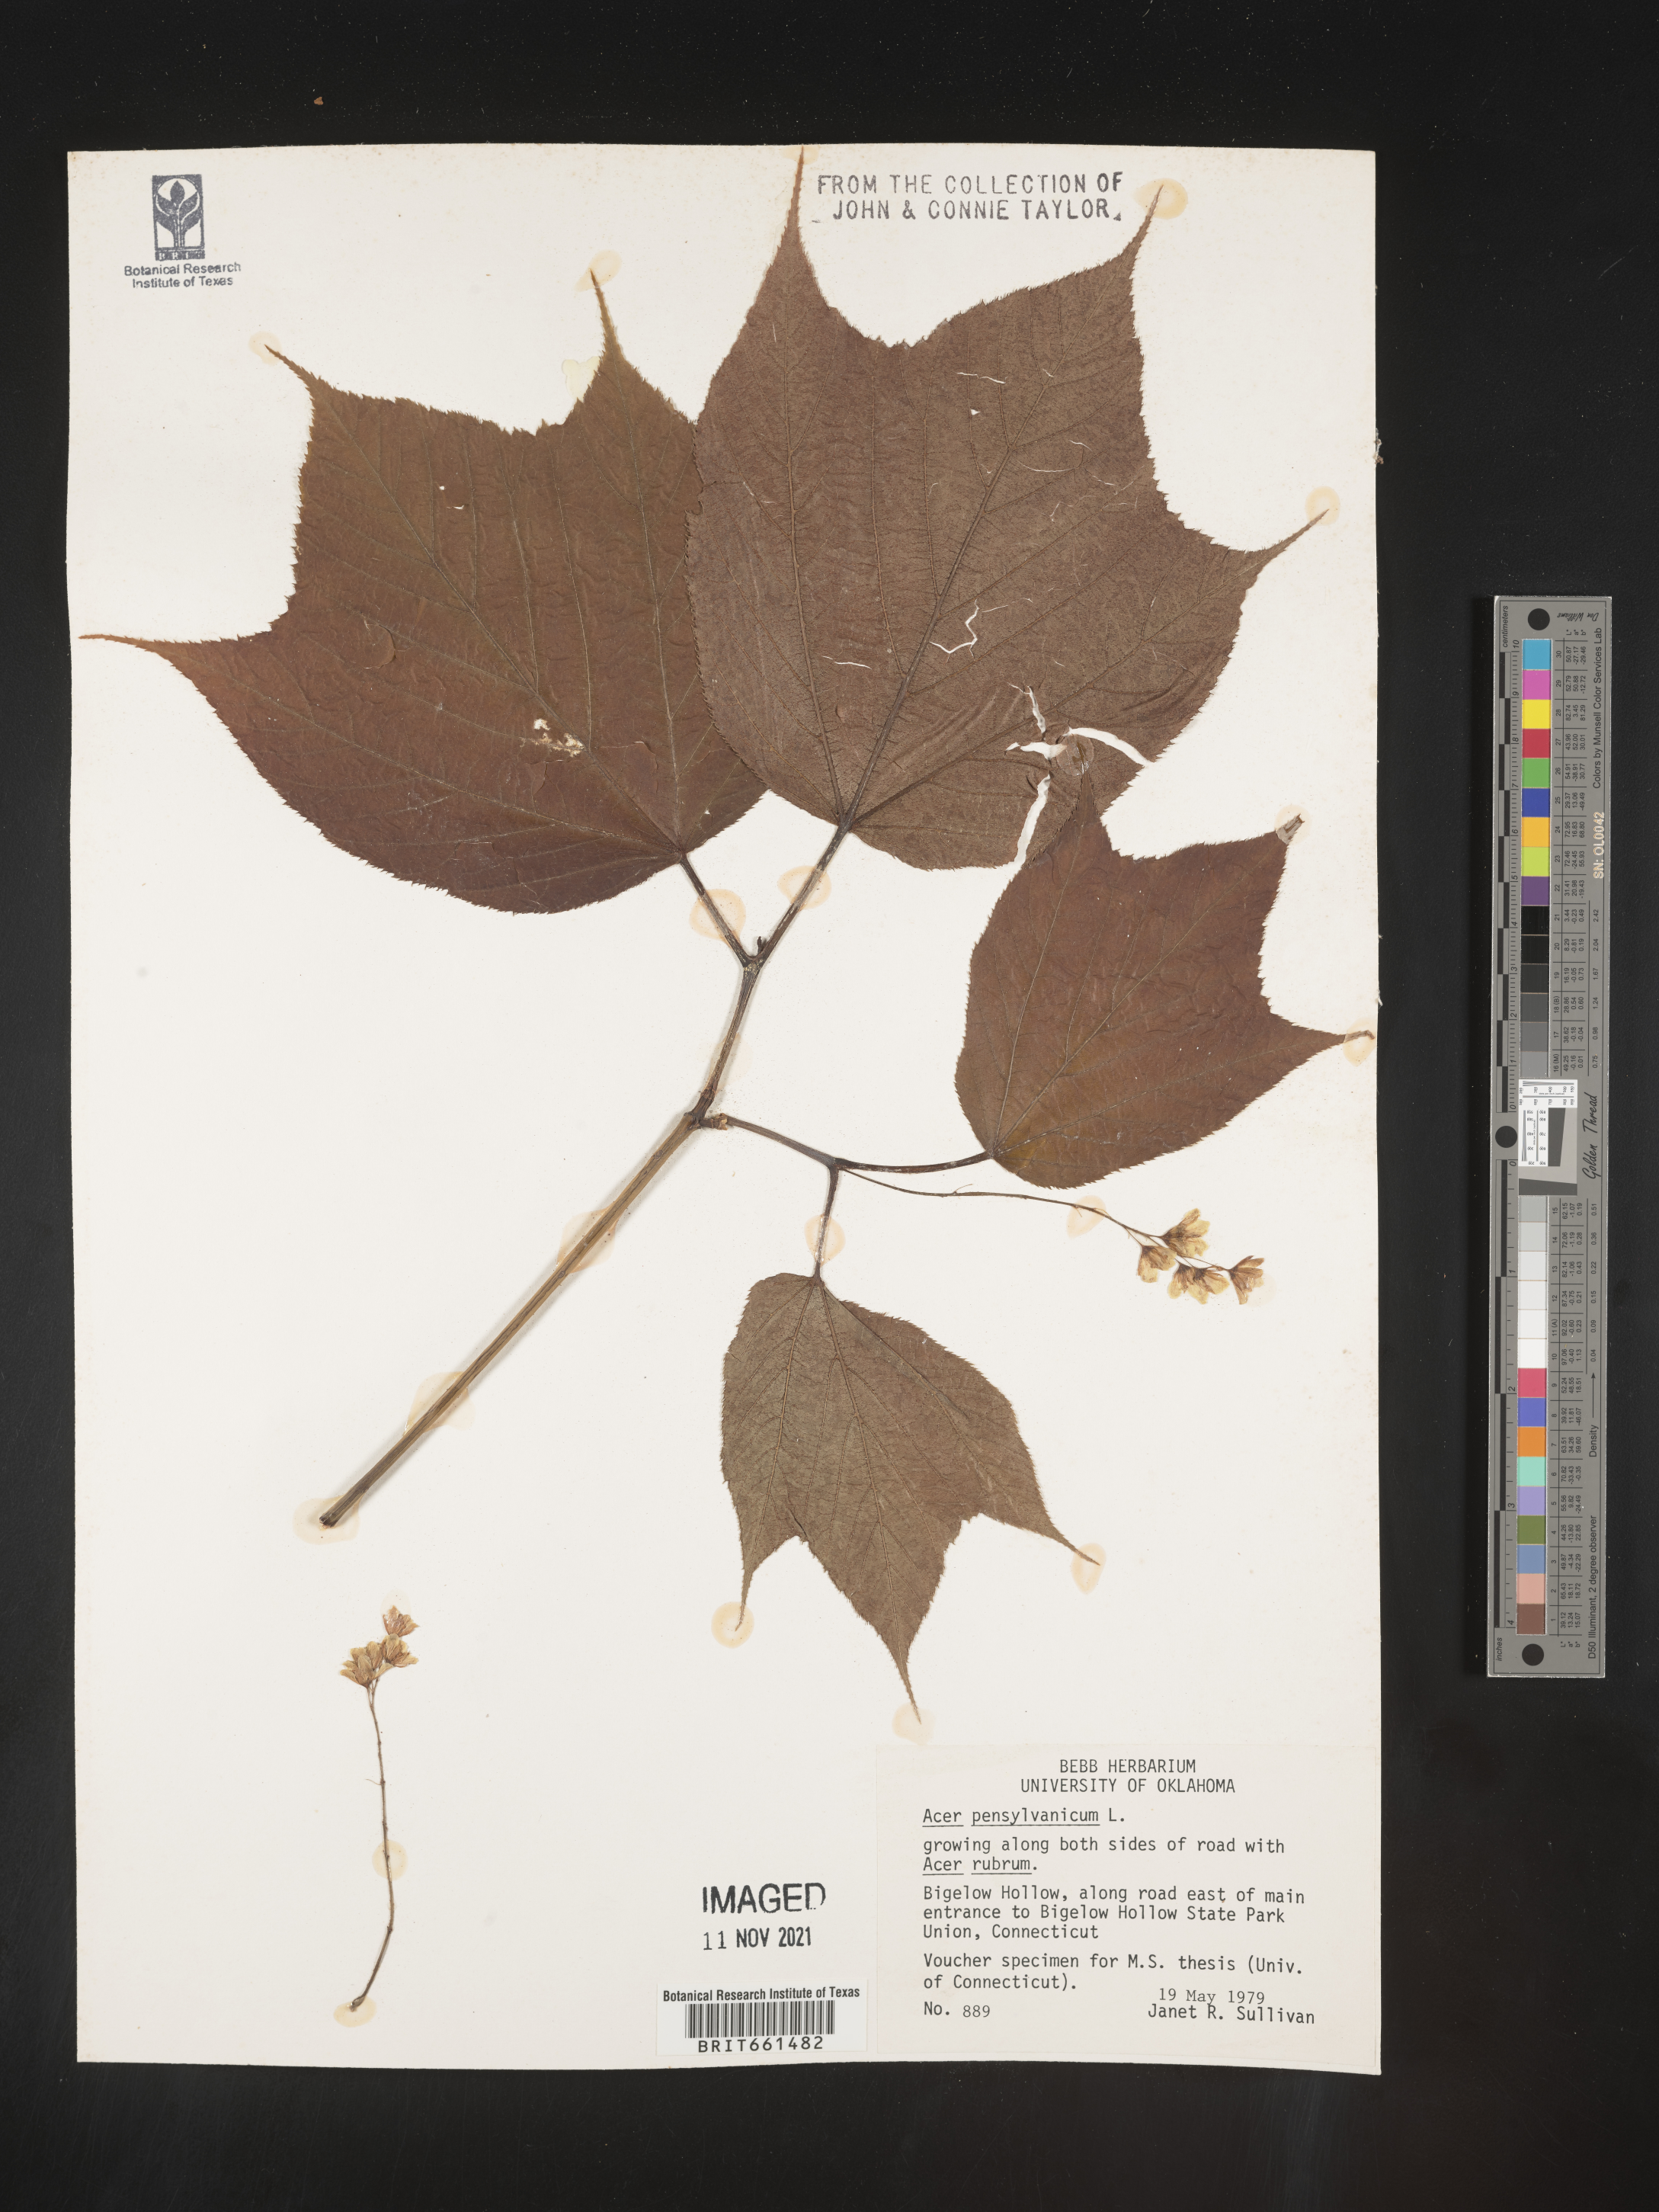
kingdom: Plantae
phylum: Tracheophyta
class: Magnoliopsida
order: Sapindales
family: Sapindaceae
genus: Acer
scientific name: Acer pensylvanicum
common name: Moosewood
